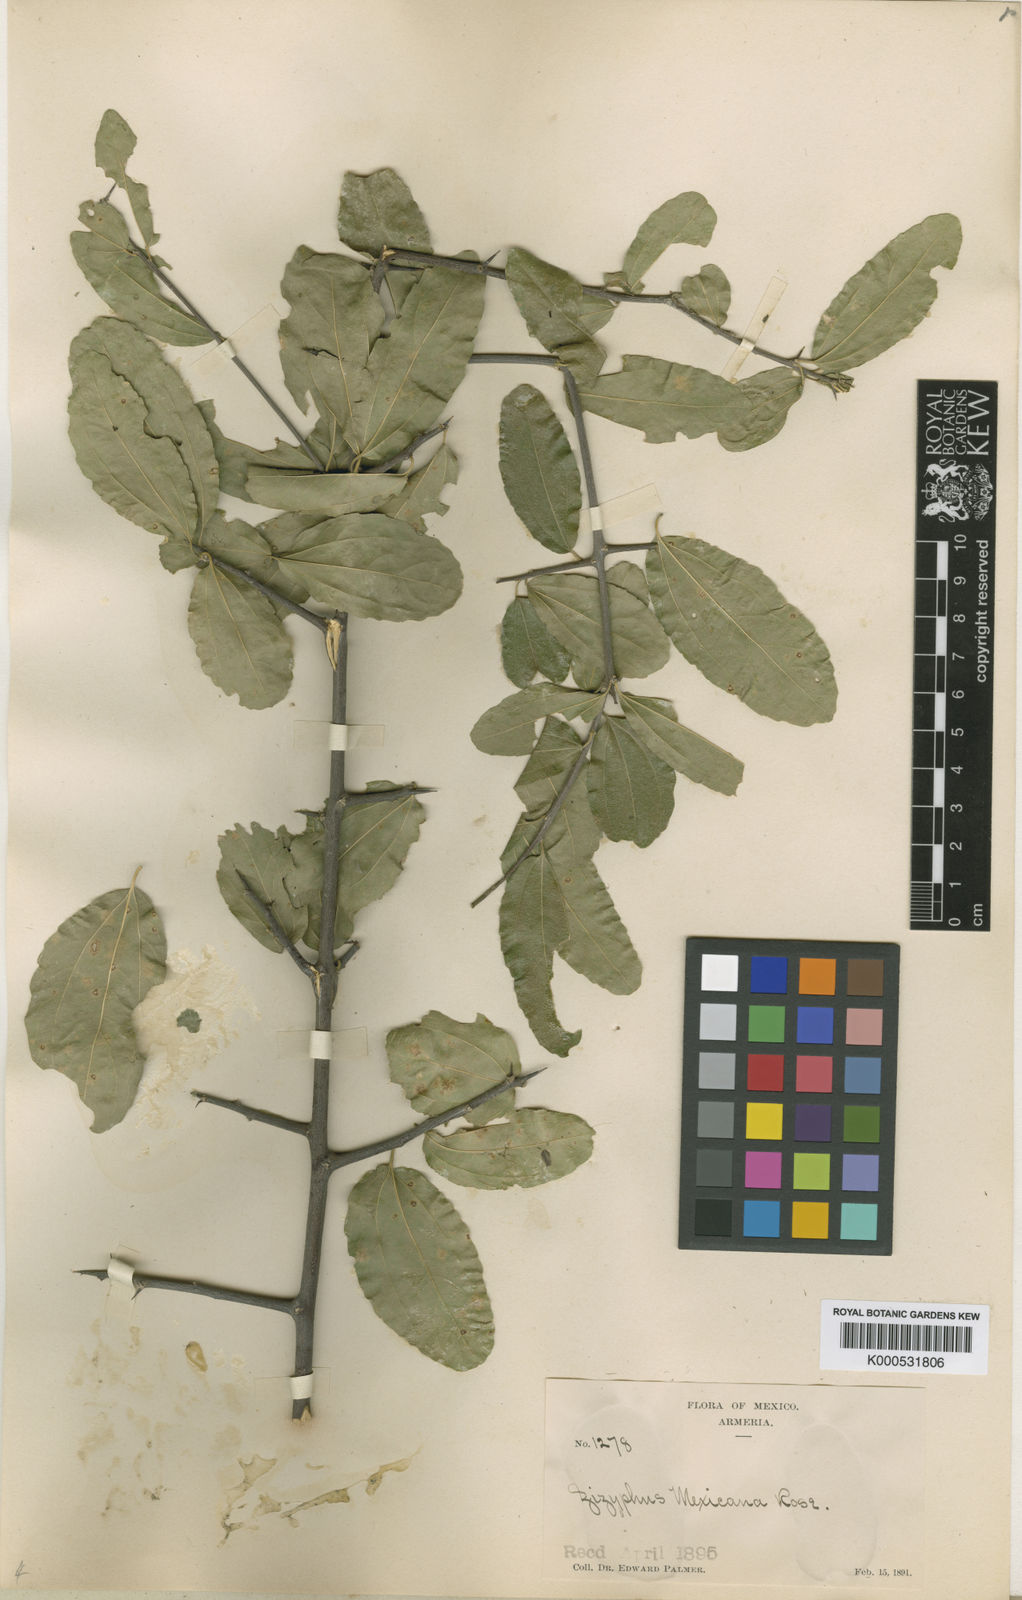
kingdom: Plantae
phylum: Tracheophyta
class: Magnoliopsida
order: Rosales
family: Rhamnaceae
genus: Sarcomphalus
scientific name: Sarcomphalus mexicanus
